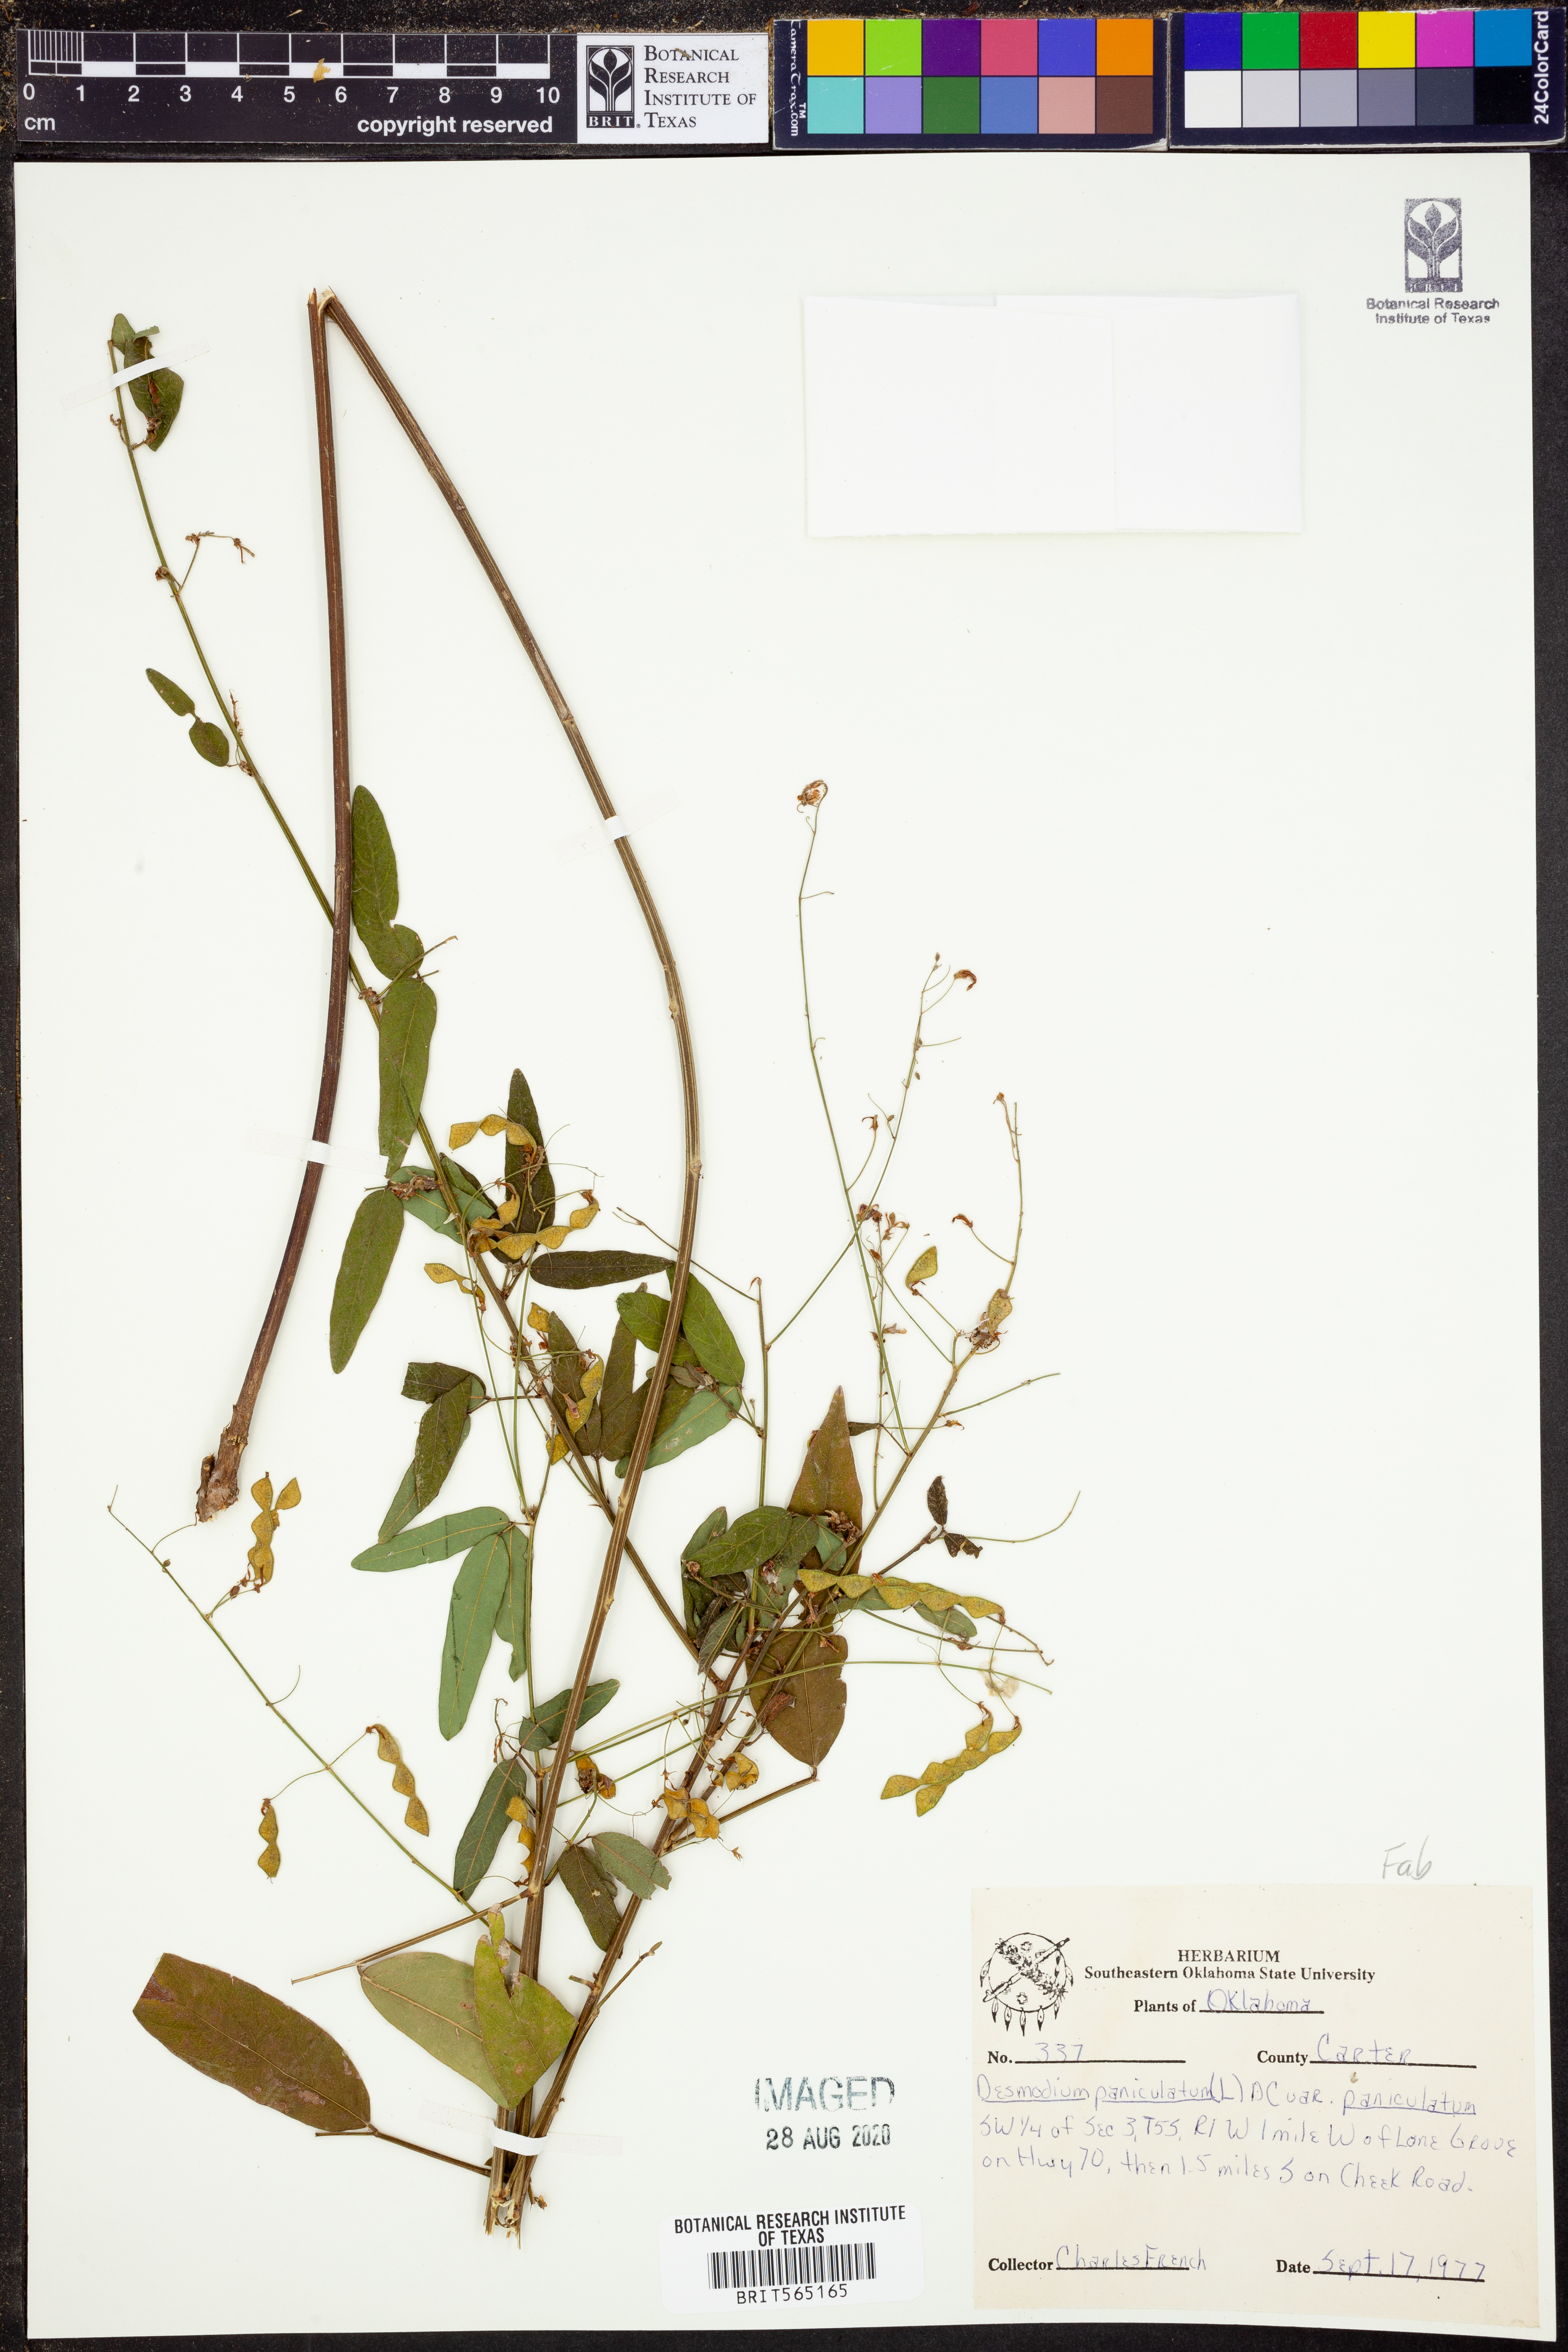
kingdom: Plantae
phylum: Tracheophyta
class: Magnoliopsida
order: Fabales
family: Fabaceae
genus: Desmodium
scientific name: Desmodium paniculatum
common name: Panicled tick-clover
